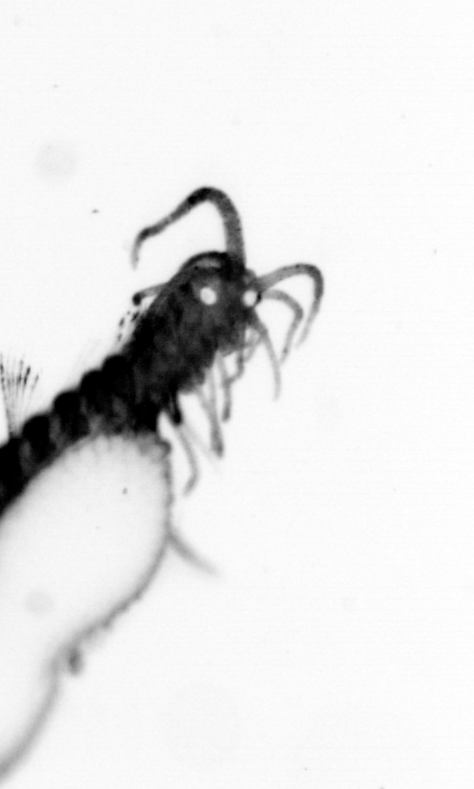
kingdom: Animalia
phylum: Annelida
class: Polychaeta
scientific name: Polychaeta
